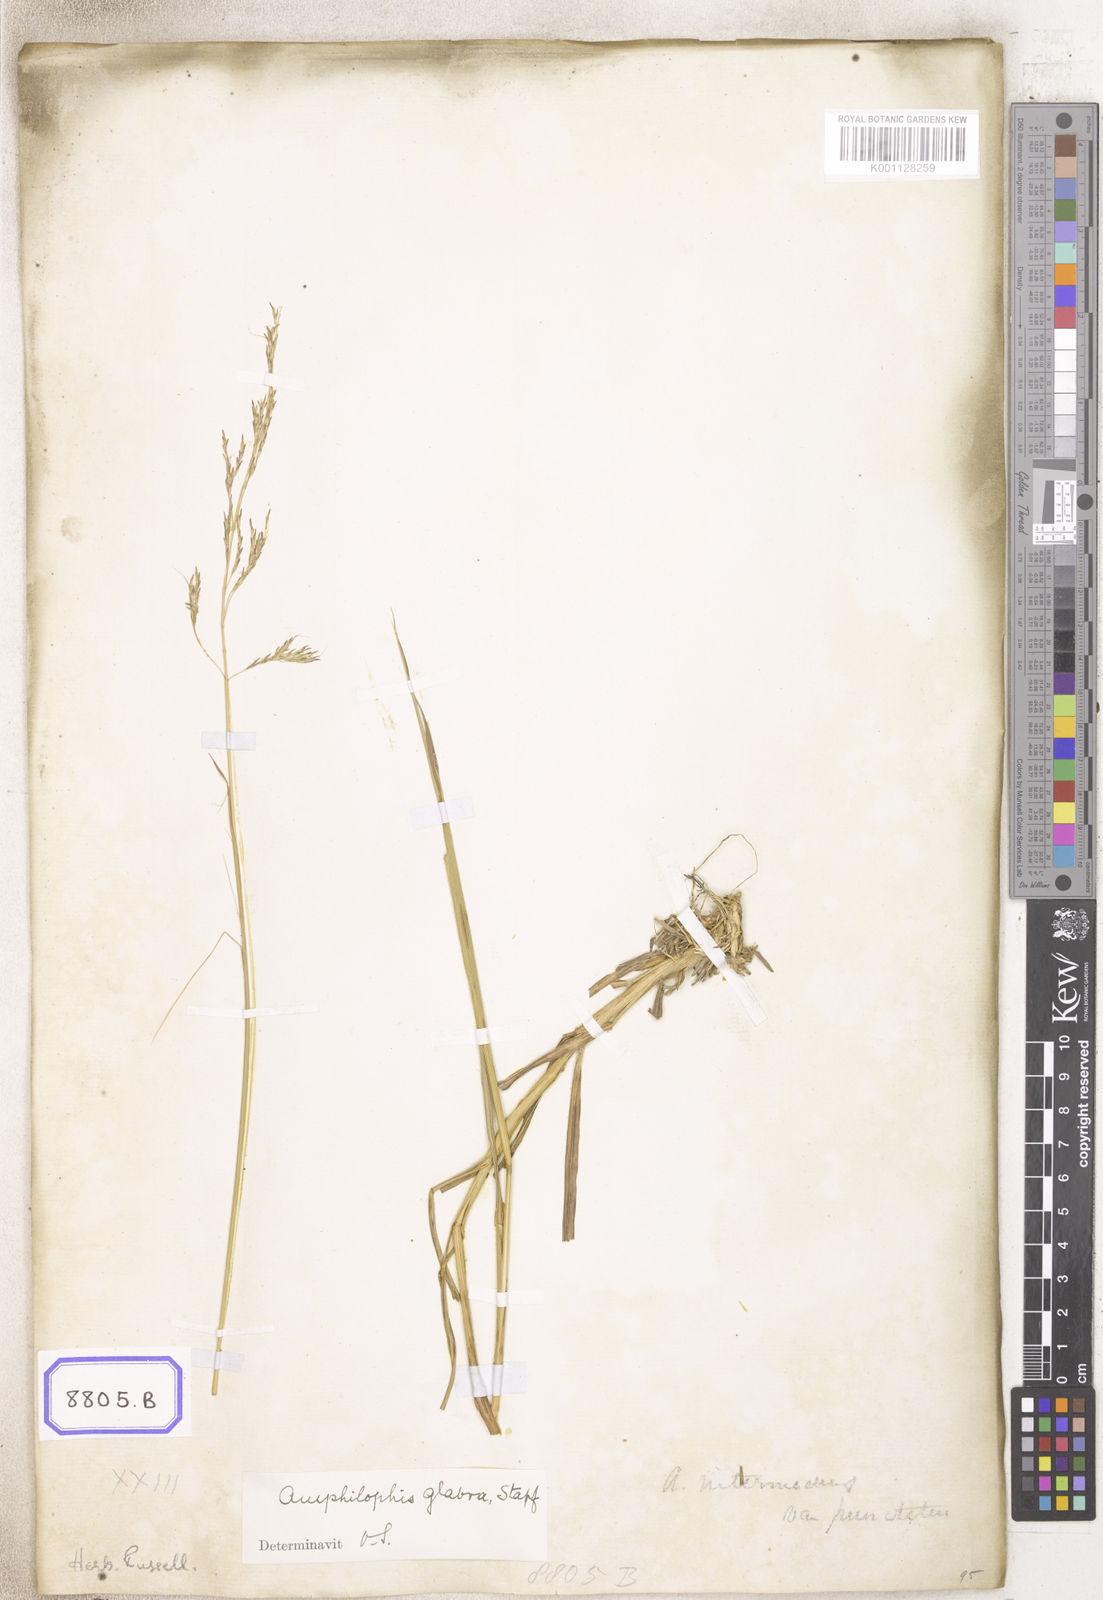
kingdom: Plantae
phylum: Tracheophyta
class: Liliopsida
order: Poales
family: Poaceae
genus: Andropogon
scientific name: Andropogon
